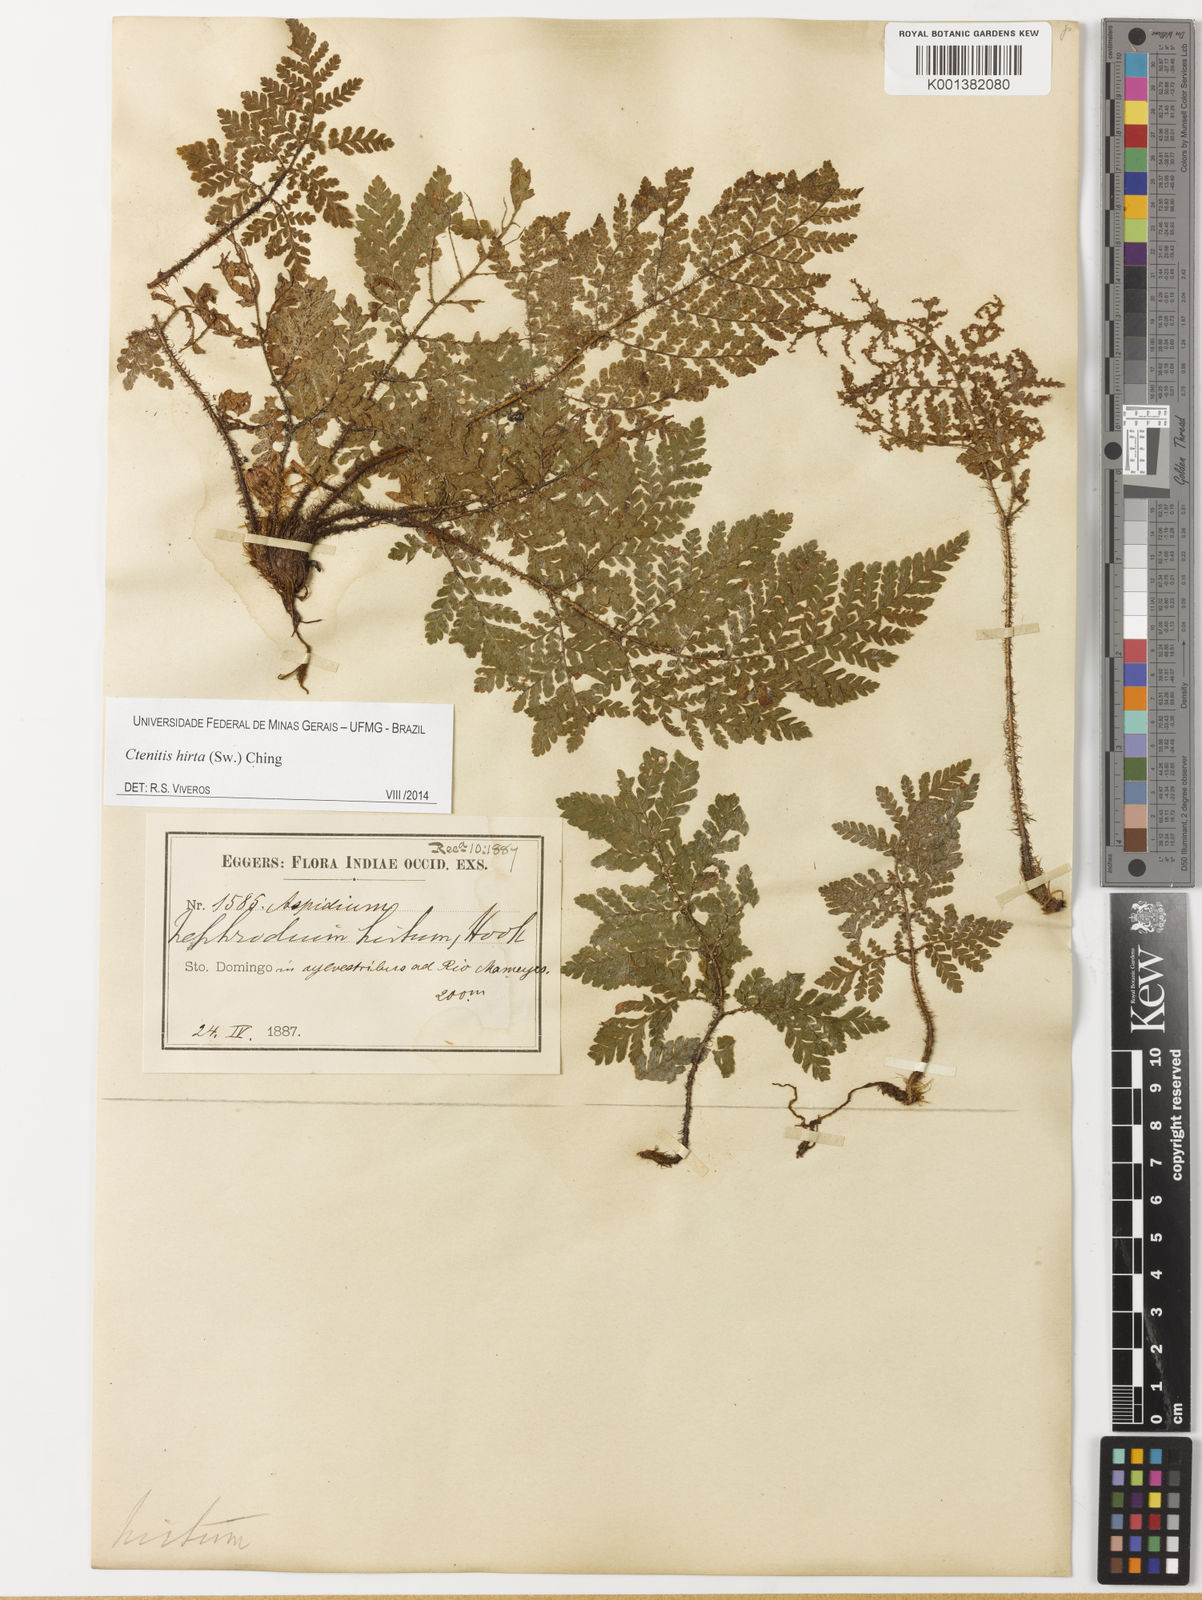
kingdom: Plantae
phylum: Tracheophyta
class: Polypodiopsida
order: Polypodiales
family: Dryopteridaceae
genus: Ctenitis
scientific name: Ctenitis hirta
